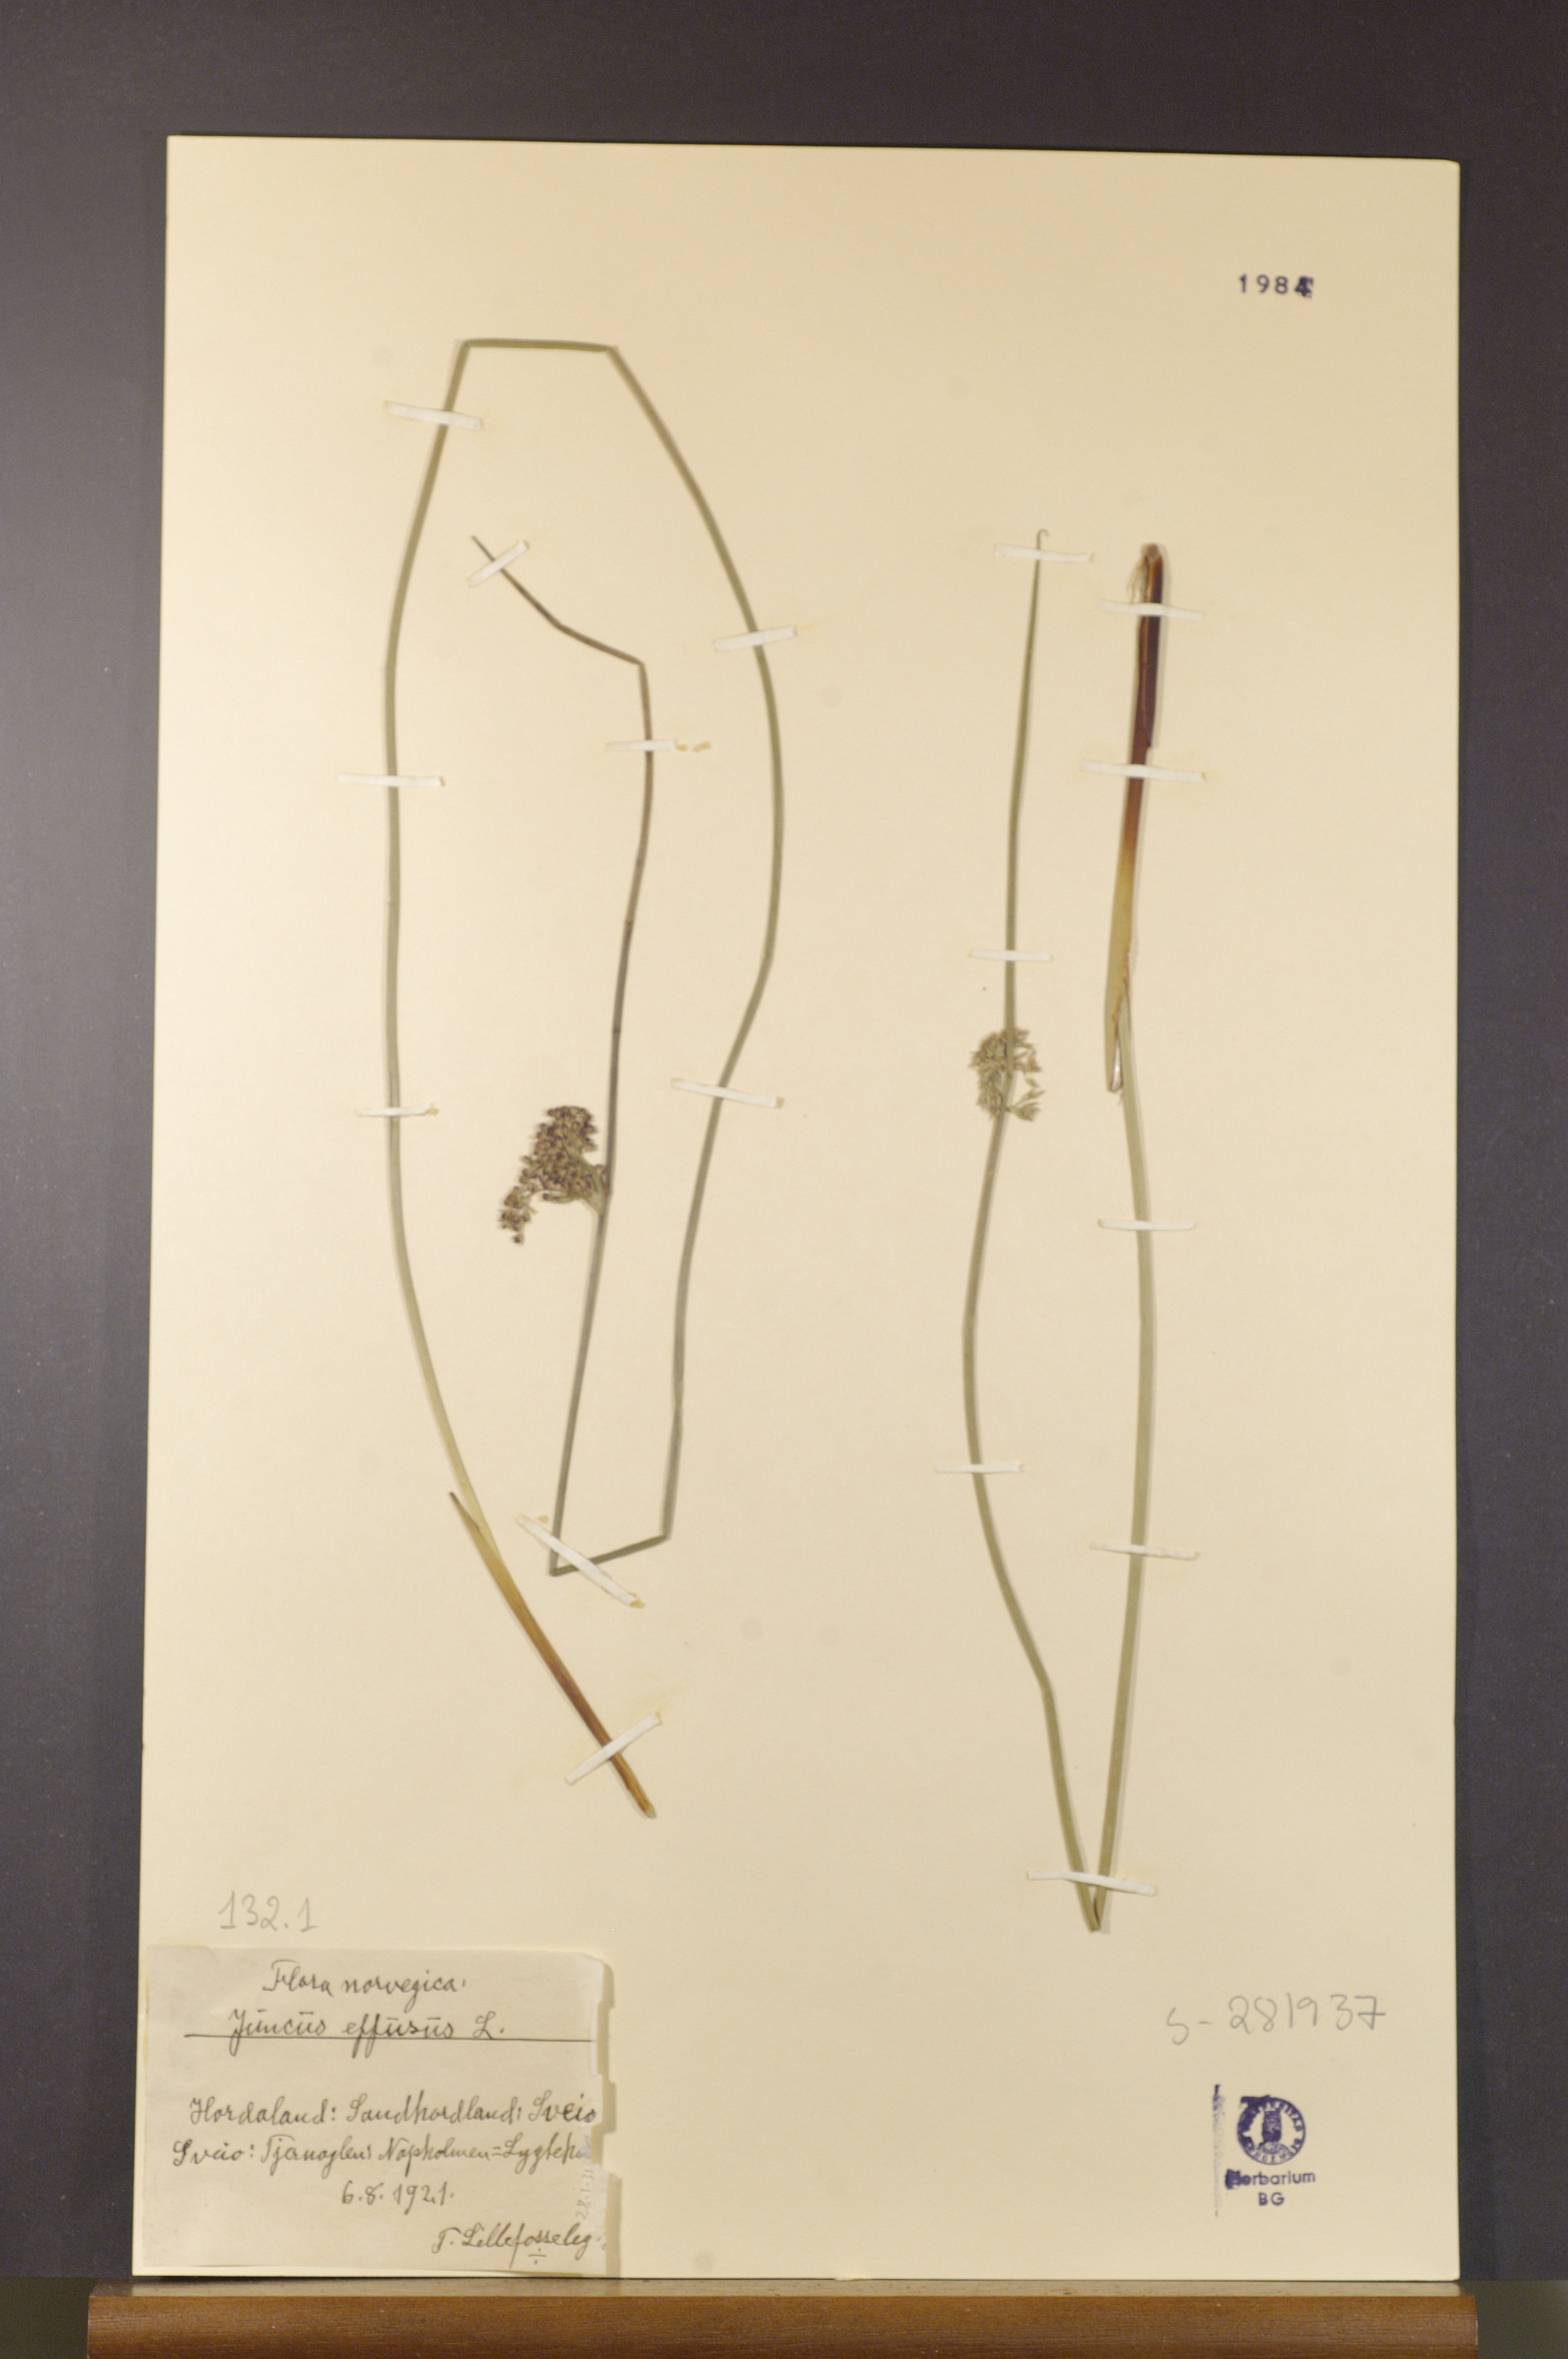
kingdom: Plantae
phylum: Tracheophyta
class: Liliopsida
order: Poales
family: Juncaceae
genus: Juncus
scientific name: Juncus effusus
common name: Soft rush
